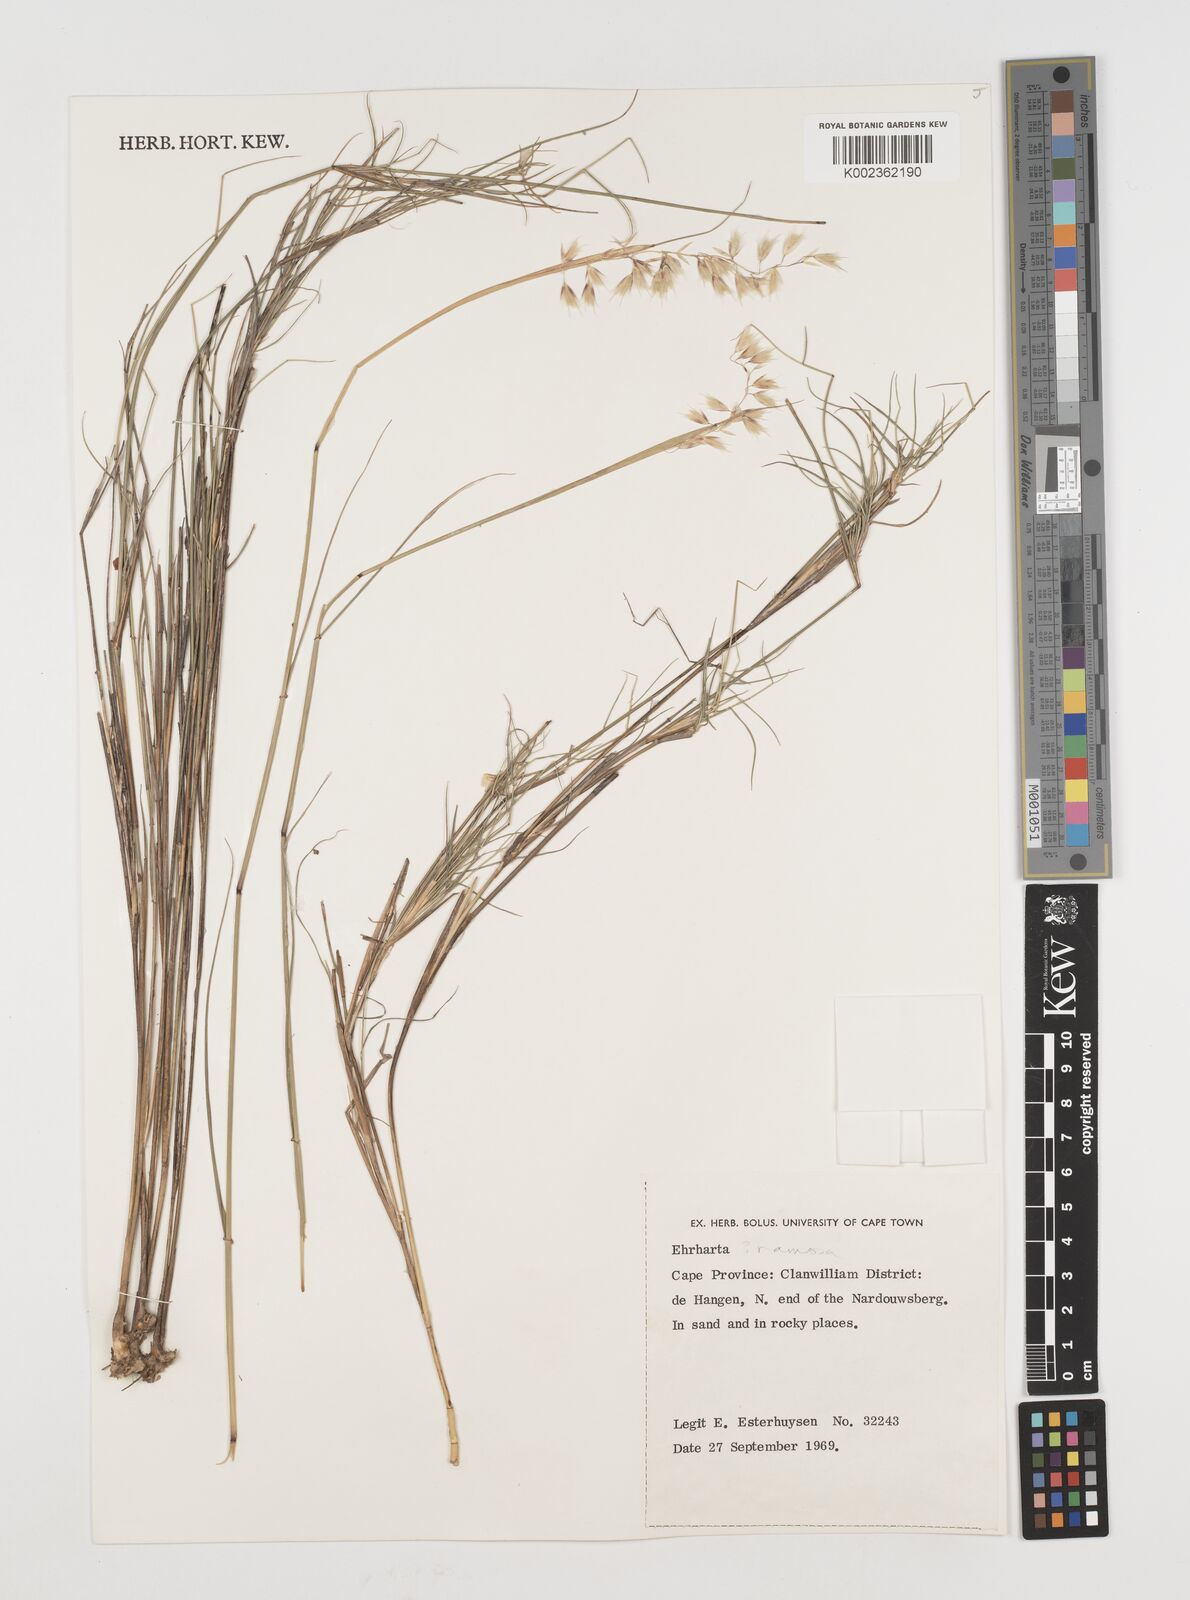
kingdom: Plantae
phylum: Tracheophyta
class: Liliopsida
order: Poales
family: Poaceae
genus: Ehrharta
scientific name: Ehrharta
